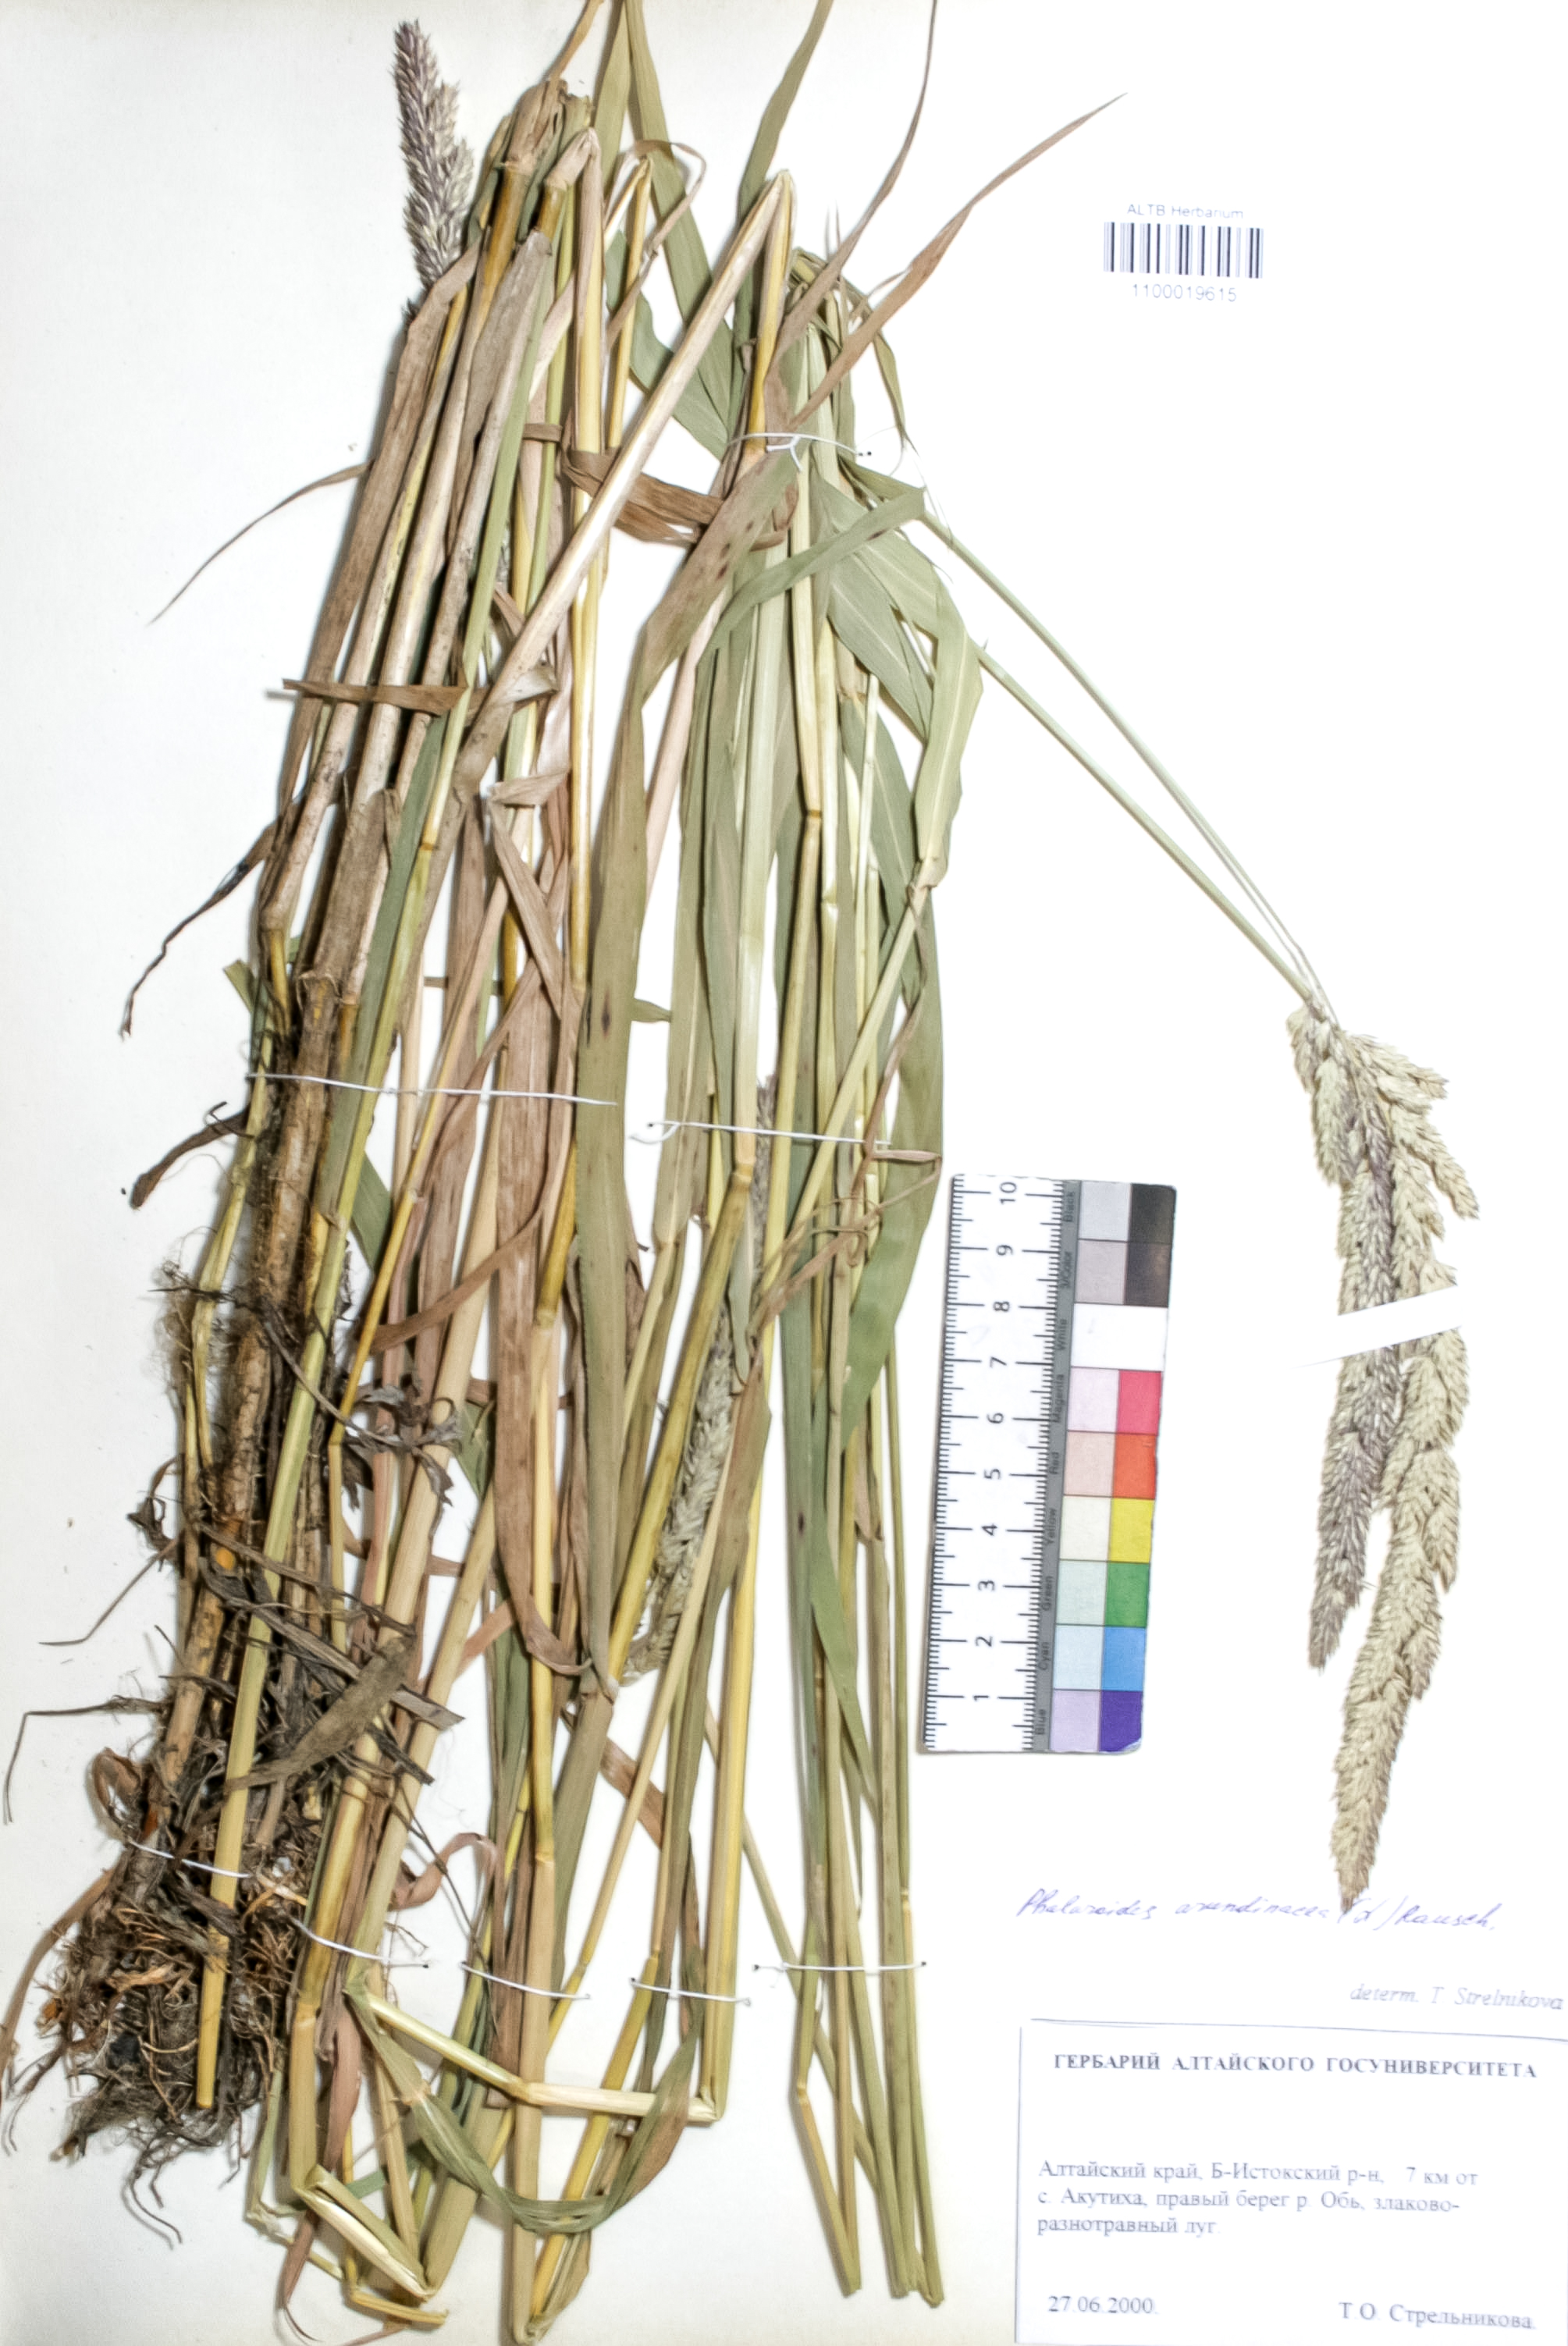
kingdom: Plantae
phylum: Tracheophyta
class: Liliopsida
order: Poales
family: Poaceae
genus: Phalaris
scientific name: Phalaris arundinacea
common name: Reed canary-grass
